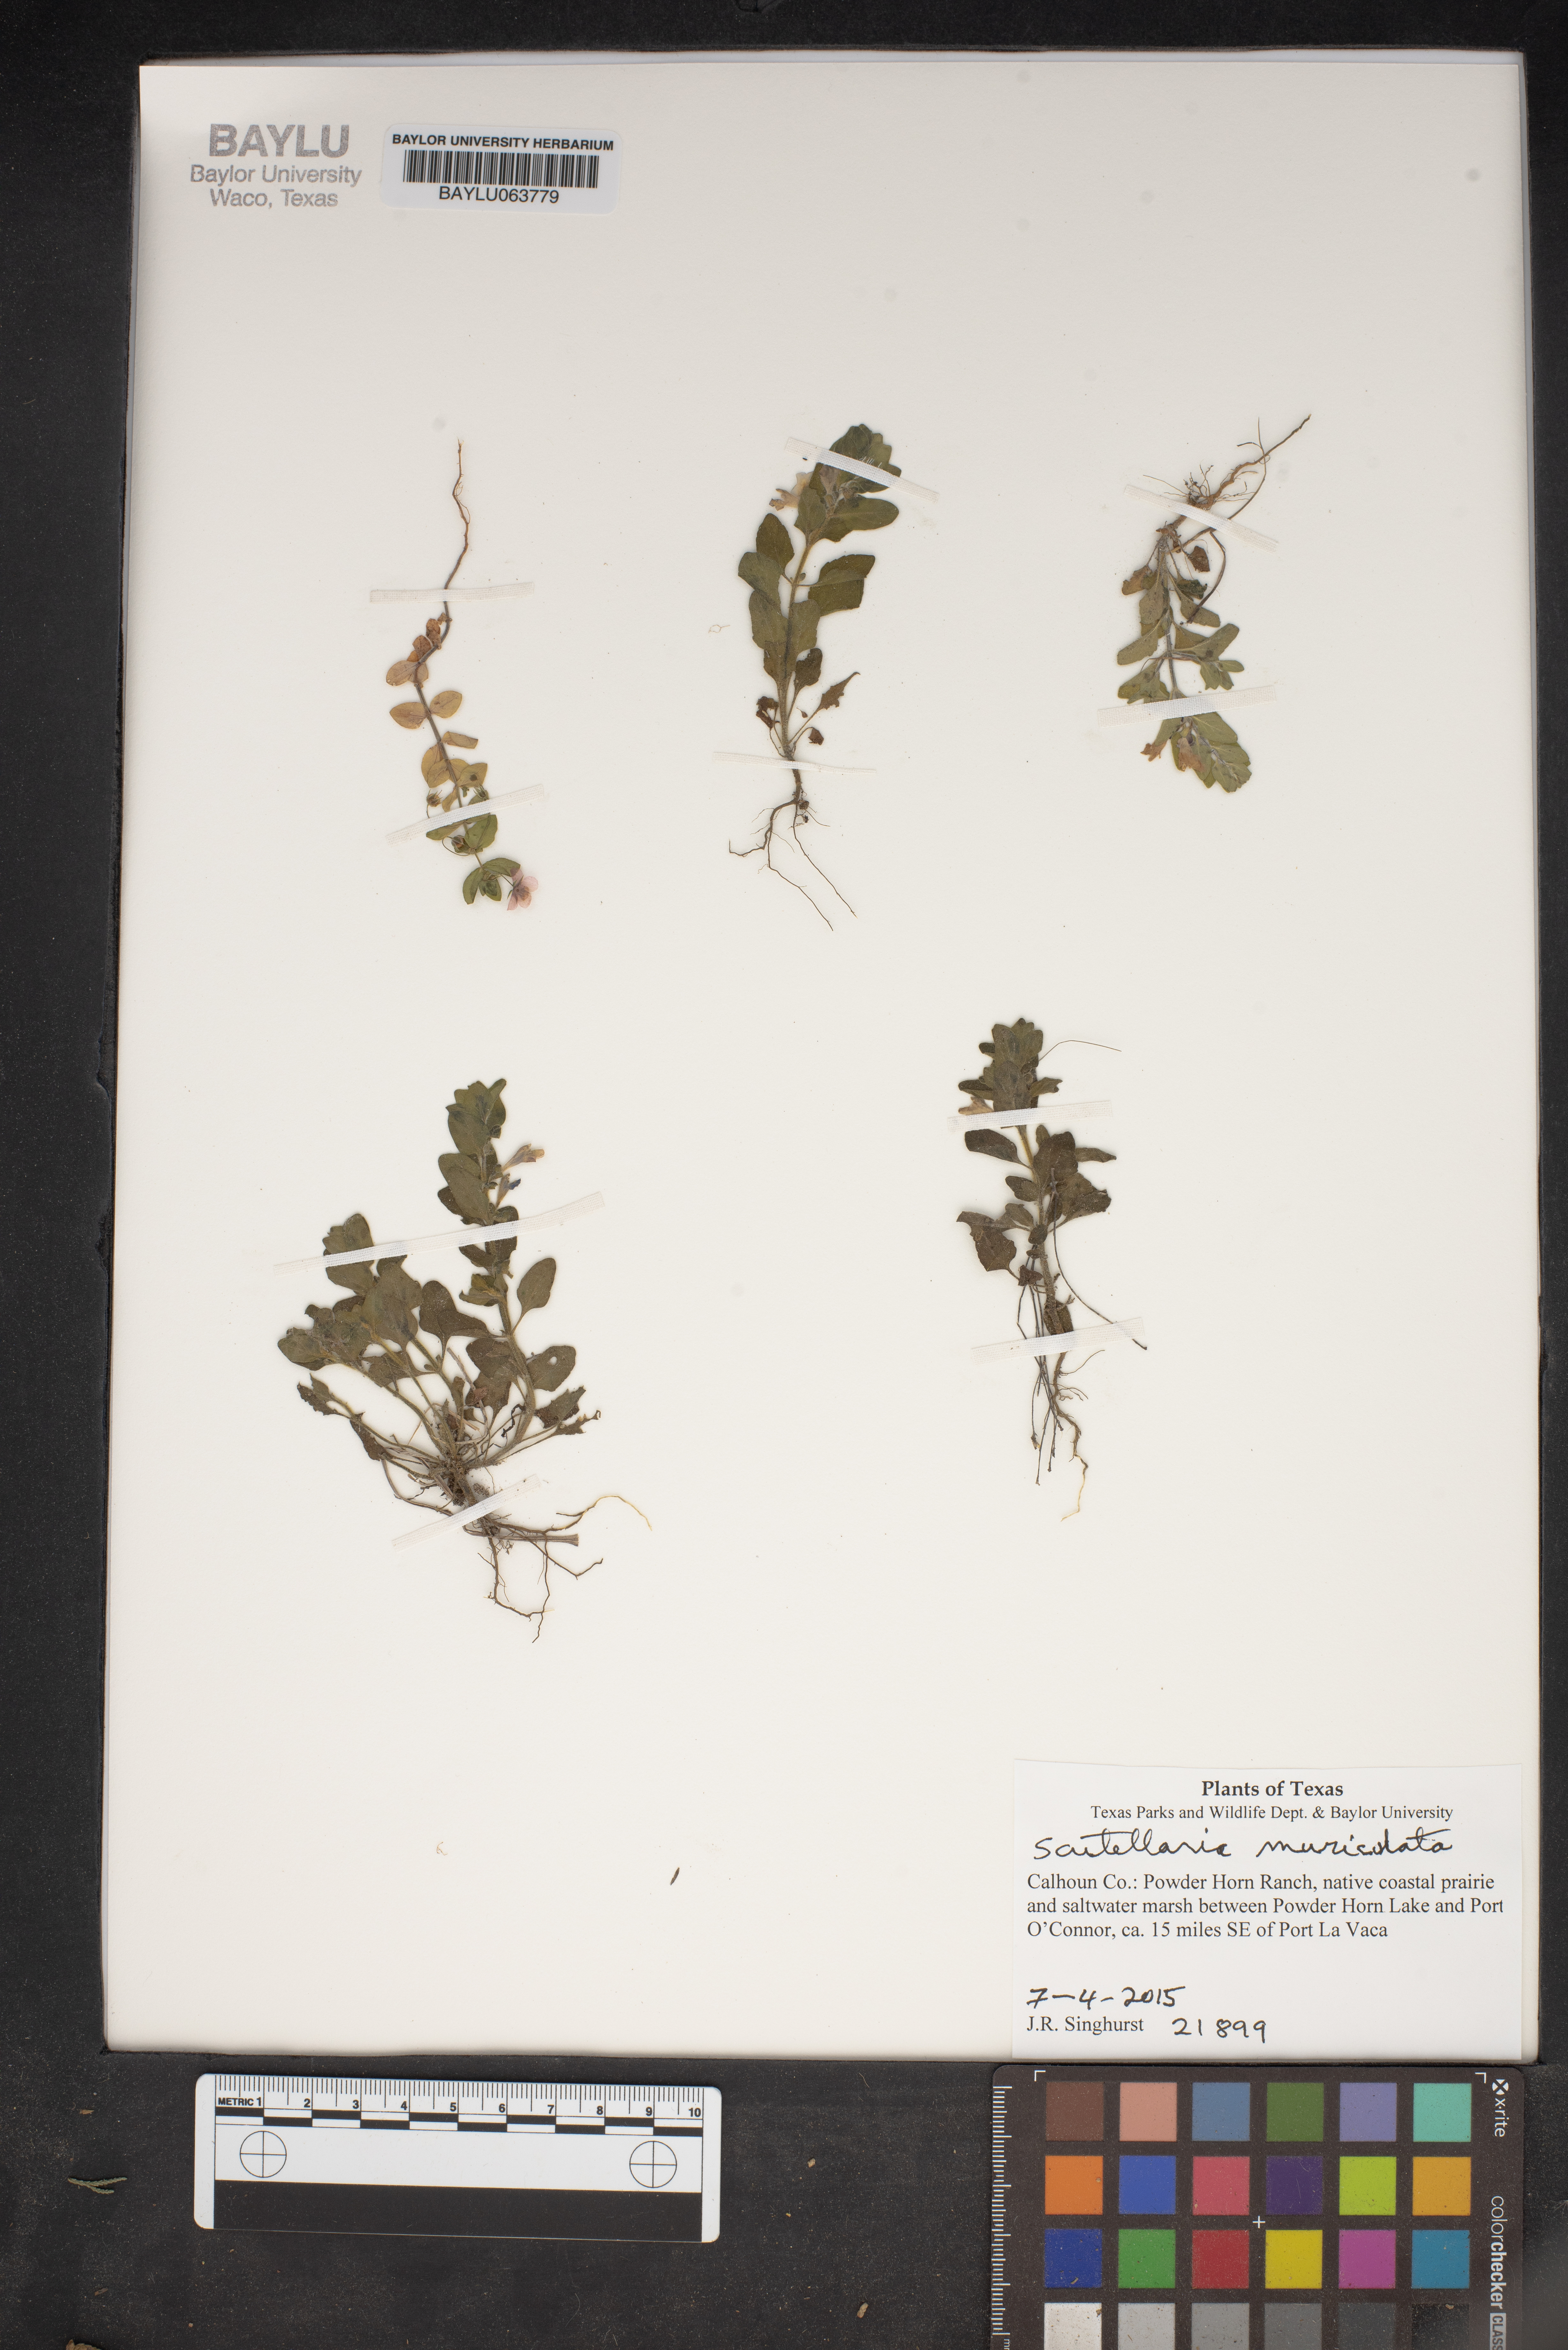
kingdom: Plantae
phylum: Tracheophyta
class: Magnoliopsida
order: Lamiales
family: Lamiaceae
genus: Scutellaria
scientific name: Scutellaria muriculata
